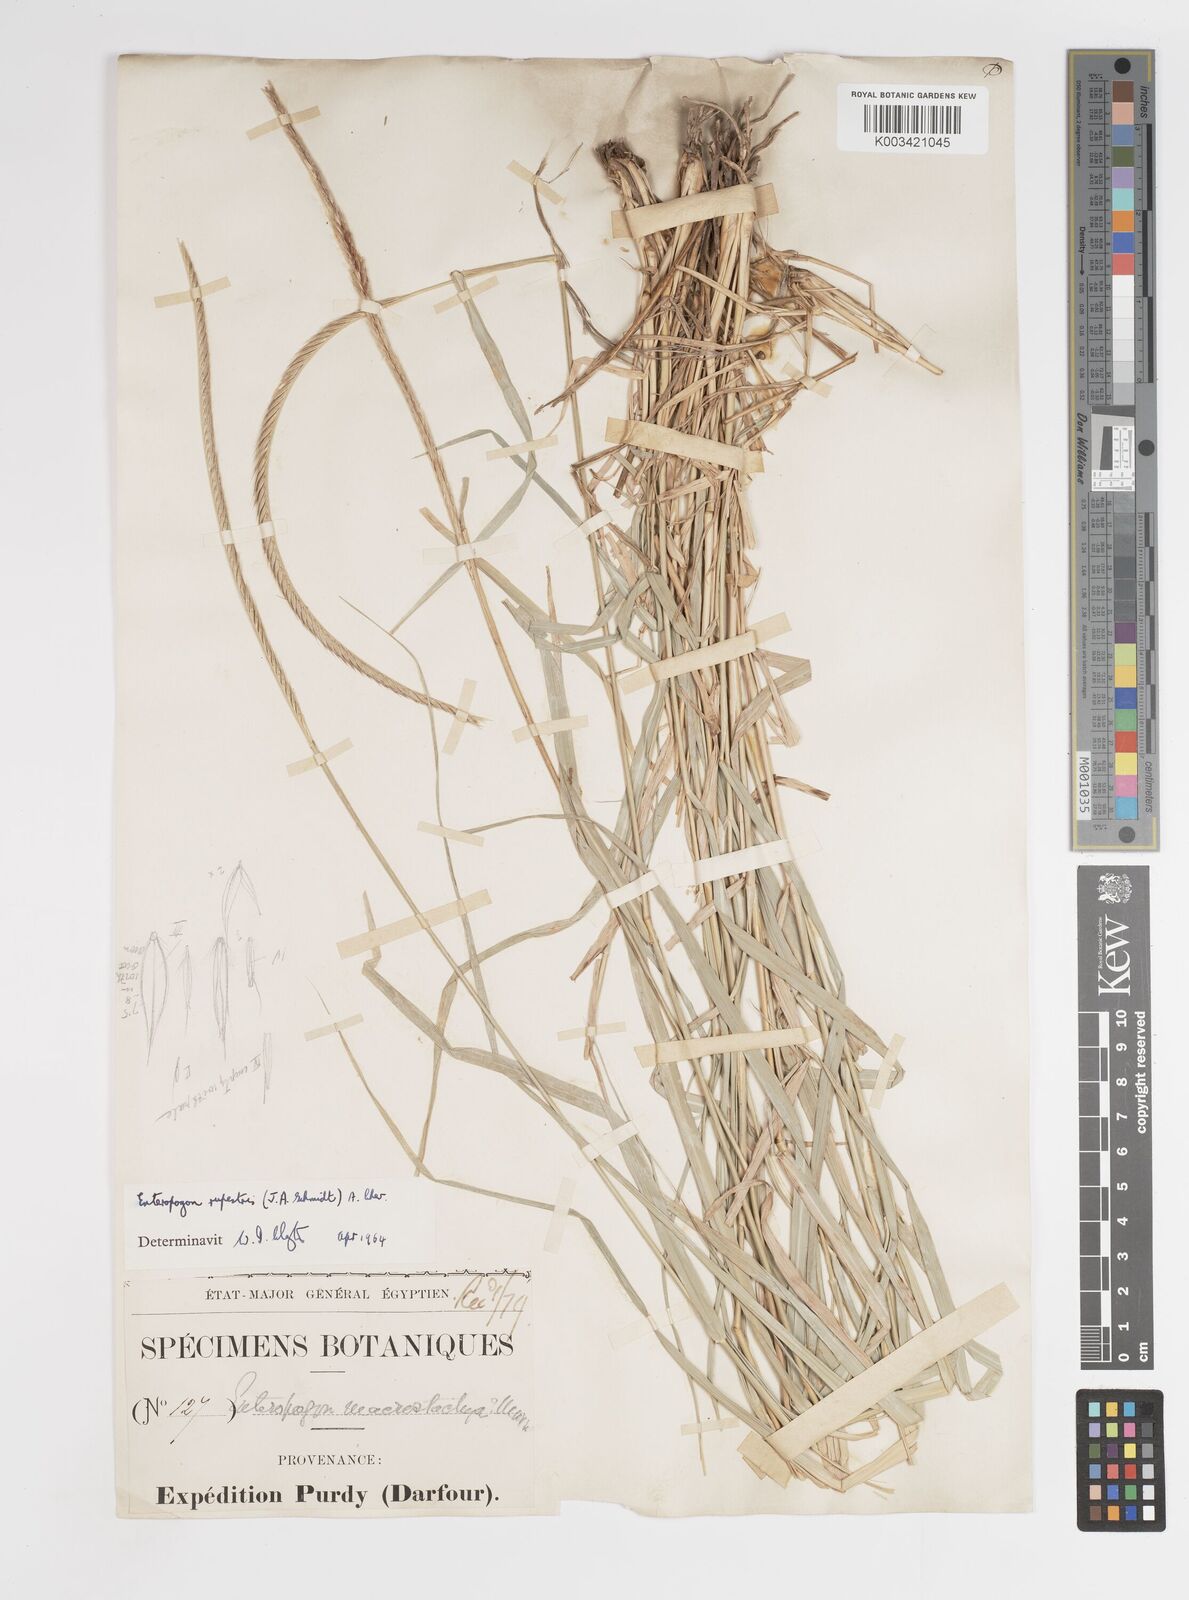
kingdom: Plantae
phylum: Tracheophyta
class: Liliopsida
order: Poales
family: Poaceae
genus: Enteropogon
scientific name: Enteropogon rupestris
